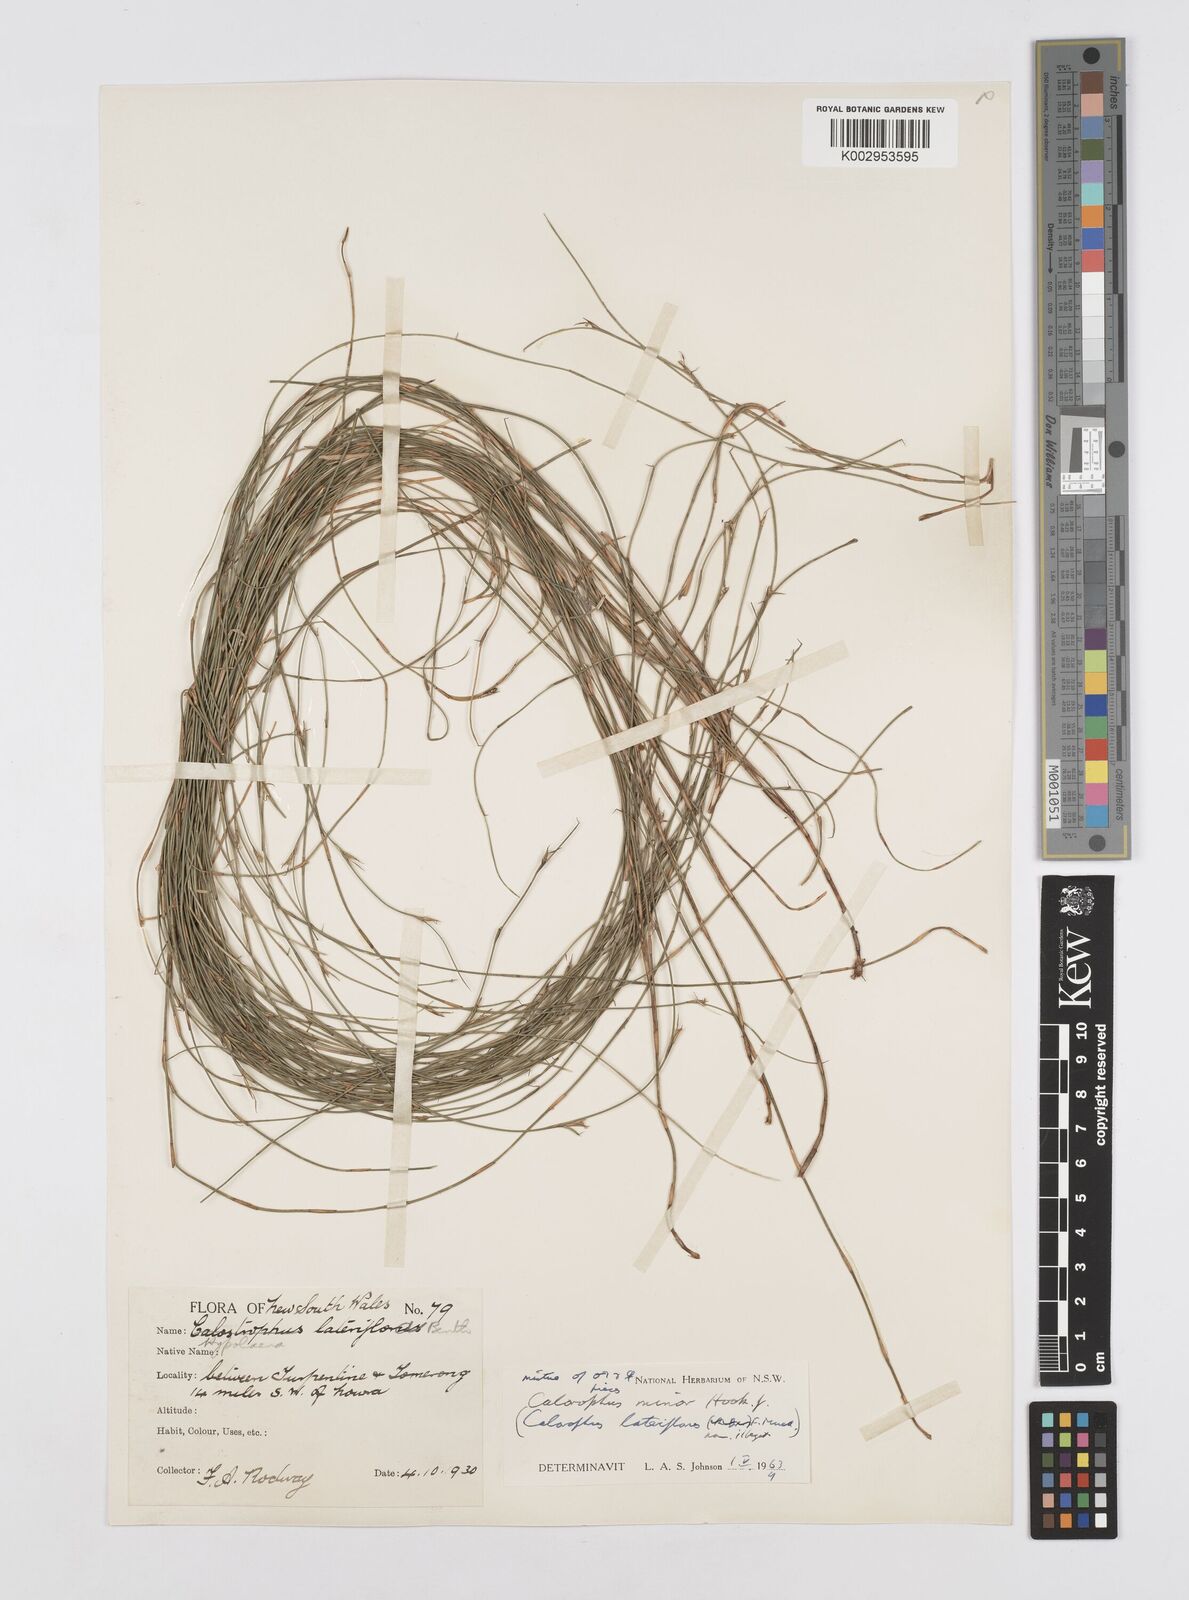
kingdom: Plantae
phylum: Tracheophyta
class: Liliopsida
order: Poales
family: Restionaceae
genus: Empodisma
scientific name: Empodisma minus
